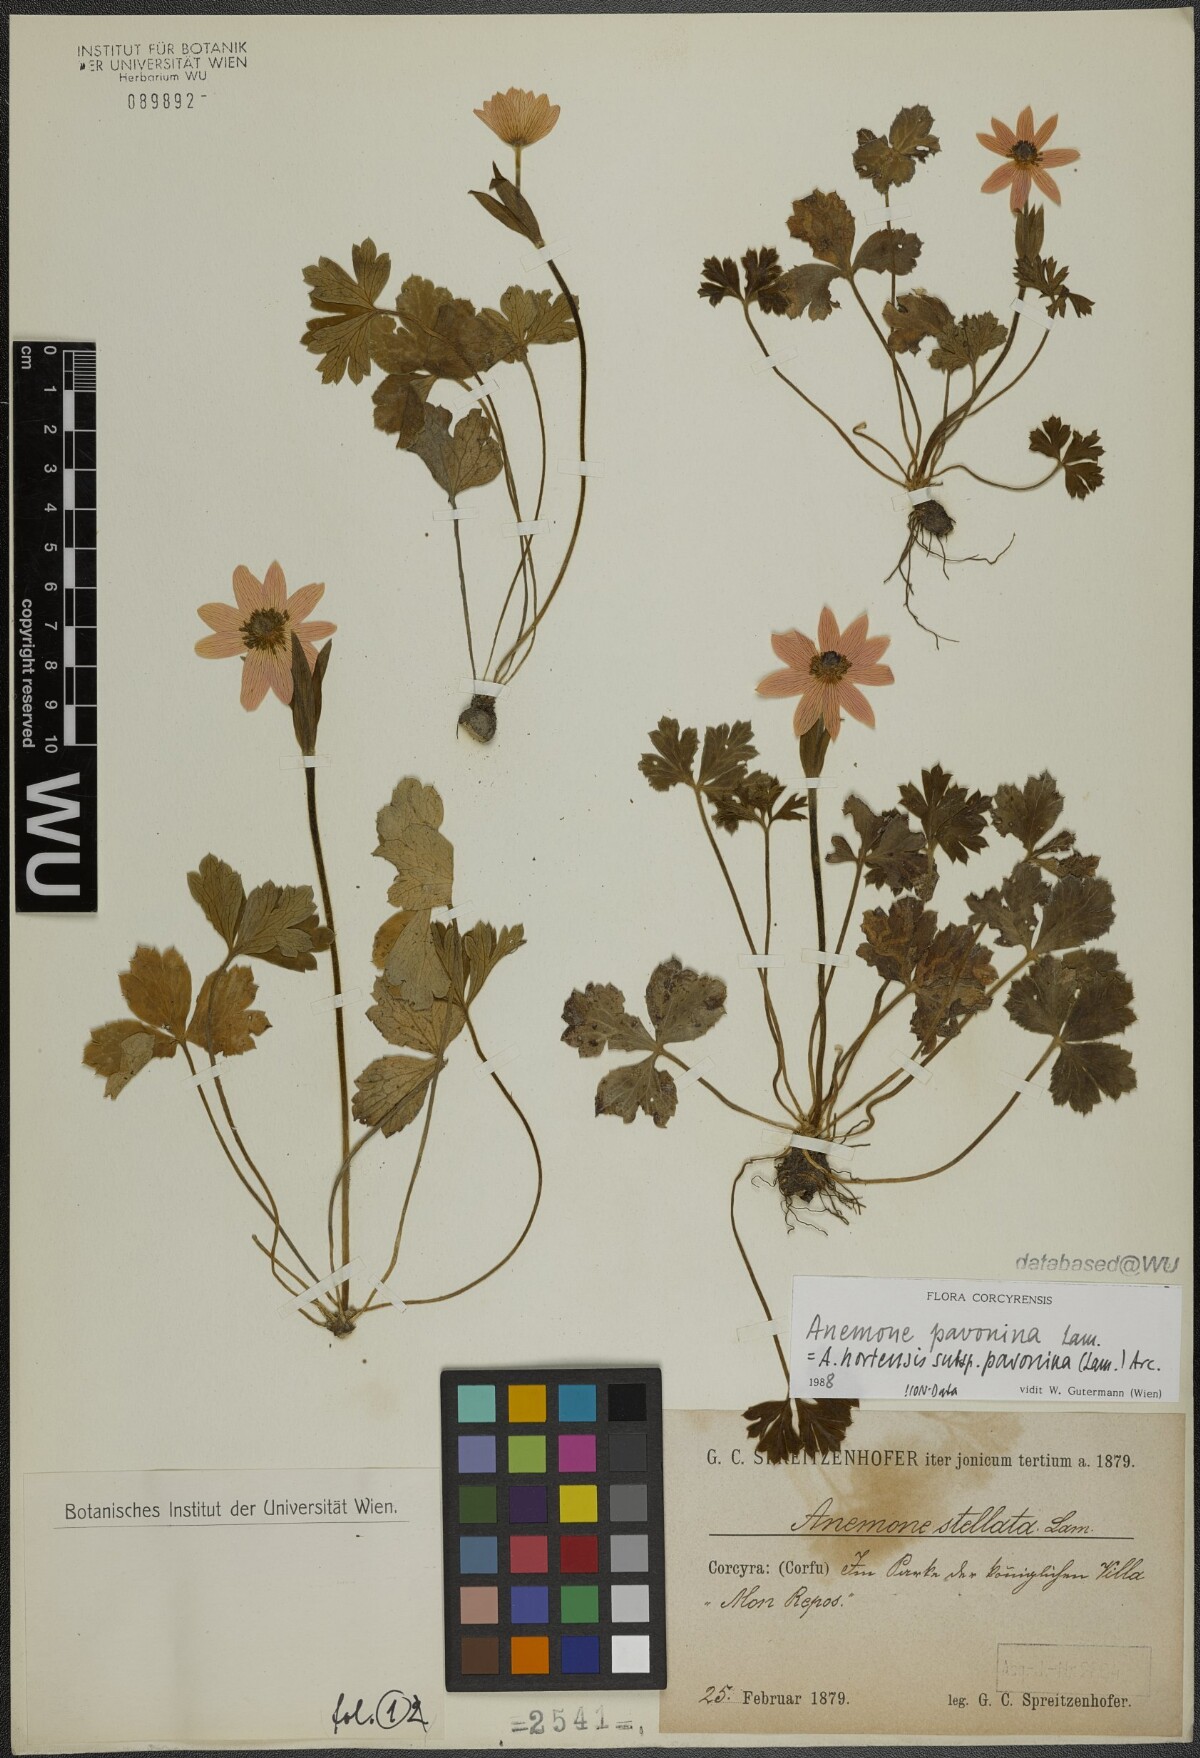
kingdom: Plantae
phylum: Tracheophyta
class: Magnoliopsida
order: Ranunculales
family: Ranunculaceae
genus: Anemone
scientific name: Anemone pavonina
